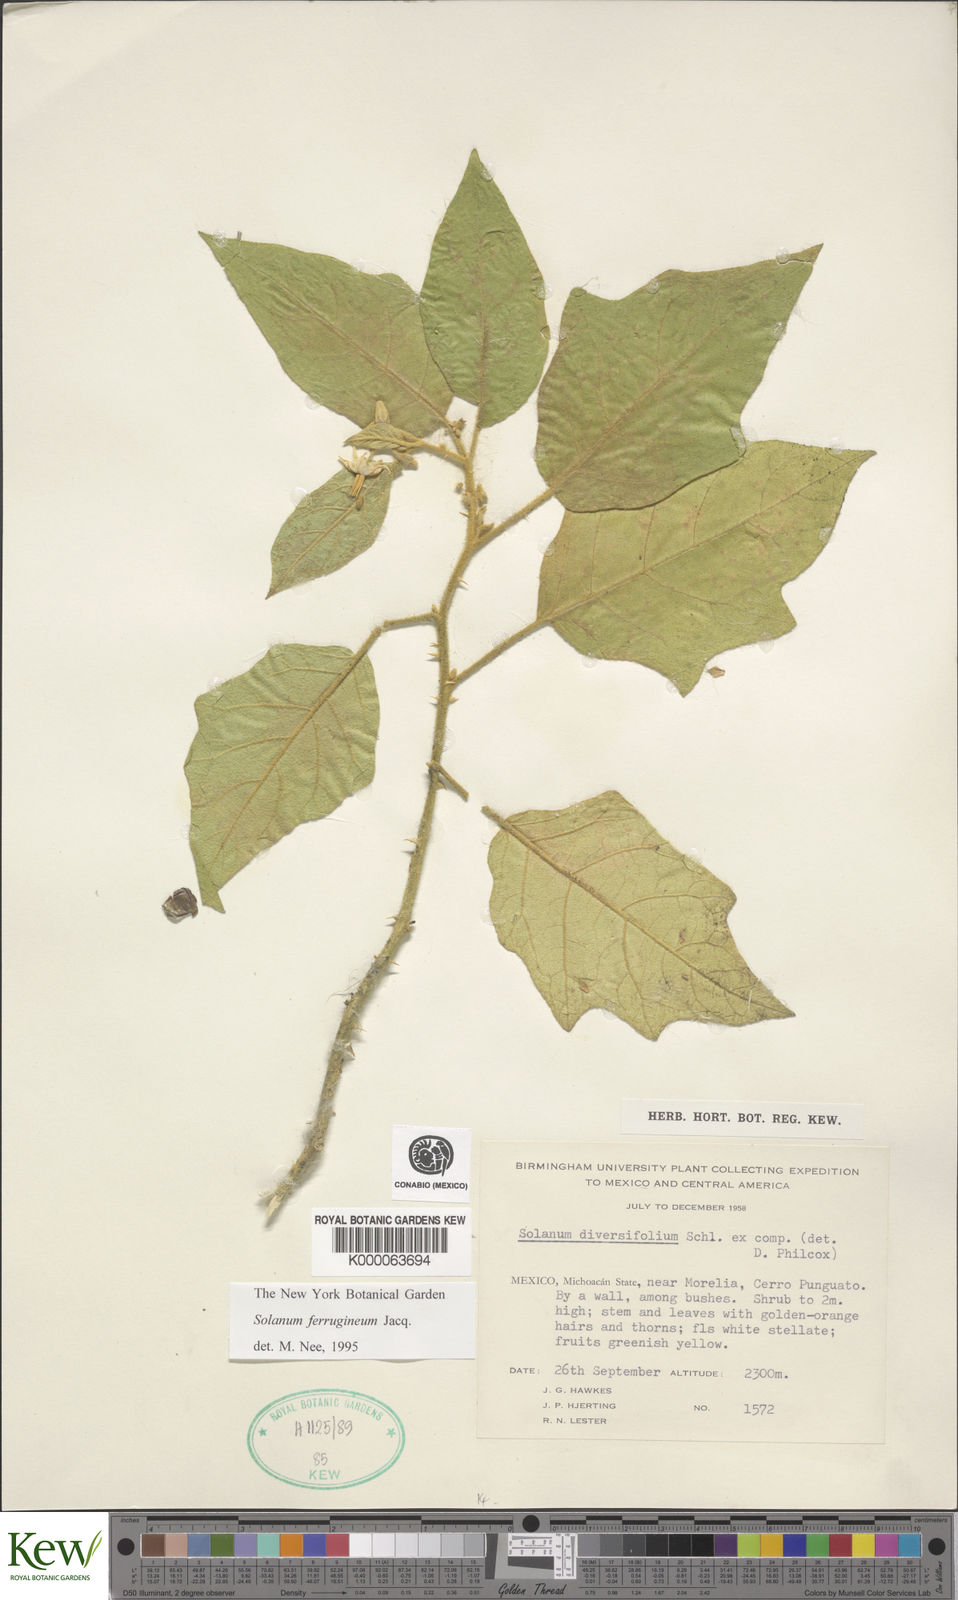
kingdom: Plantae
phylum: Tracheophyta
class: Magnoliopsida
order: Solanales
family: Solanaceae
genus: Solanum
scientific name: Solanum
